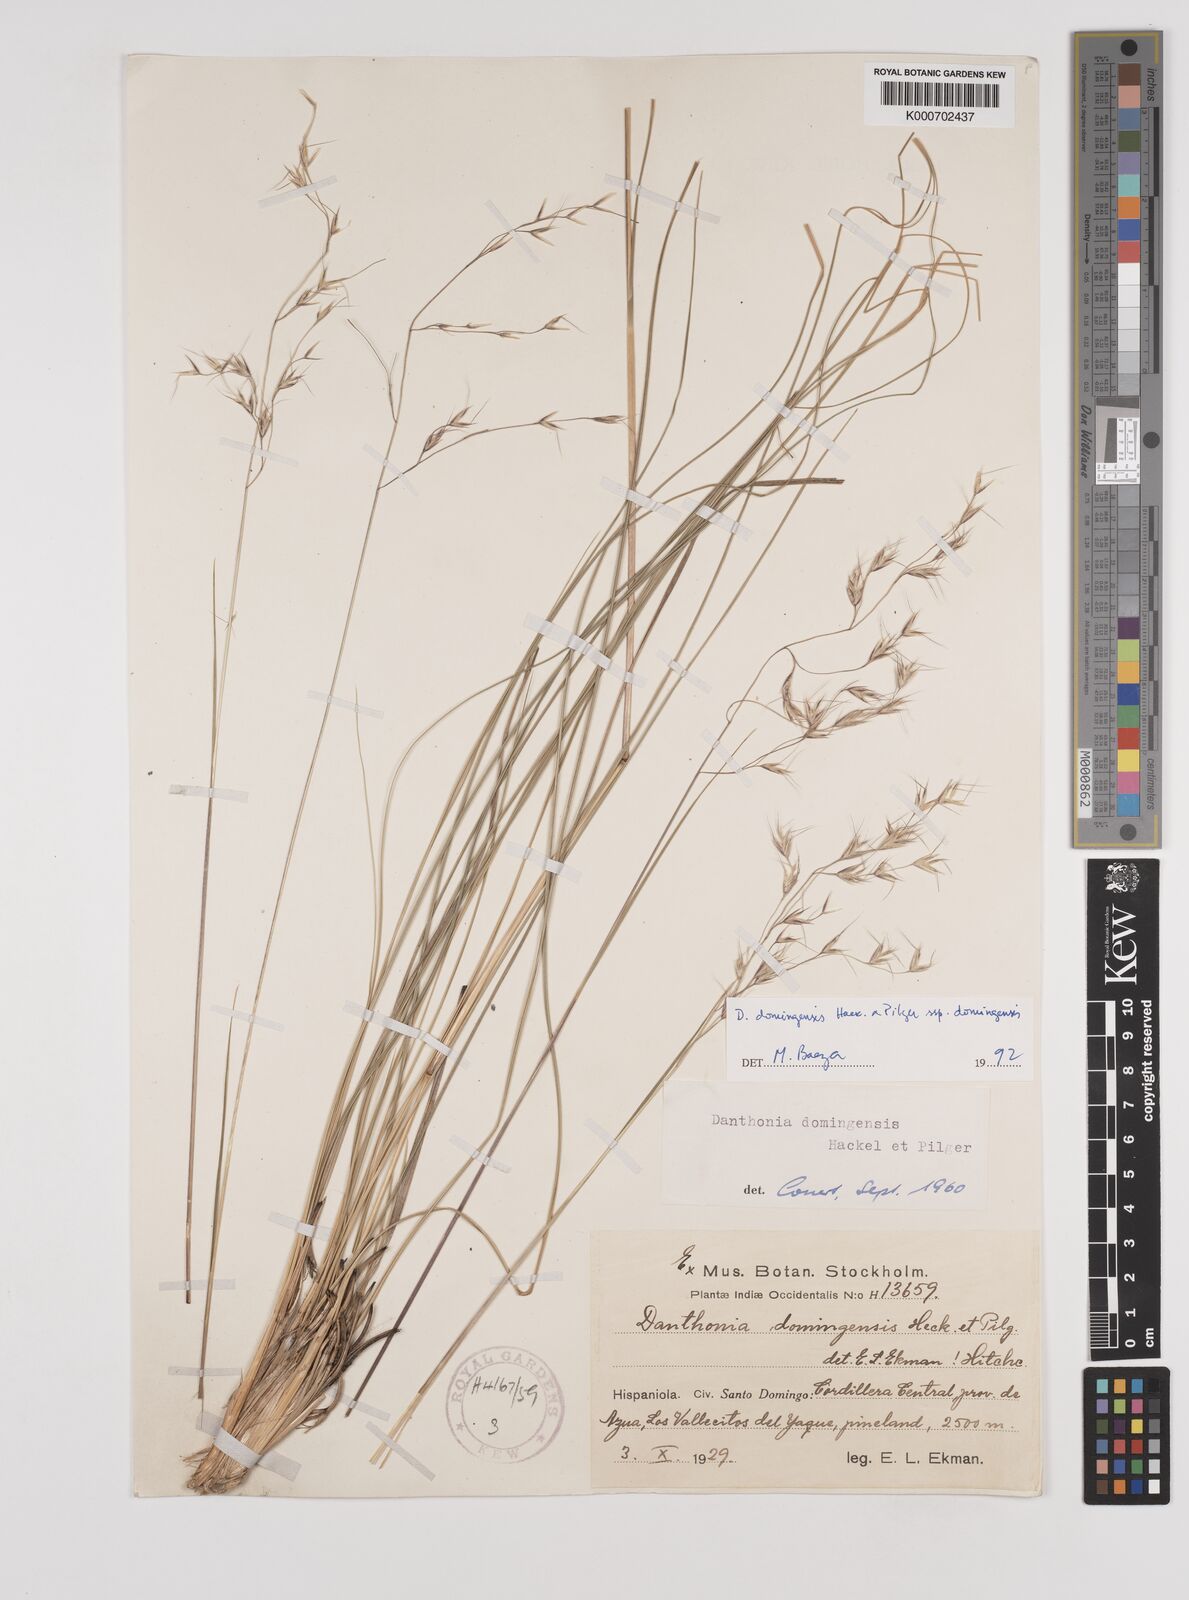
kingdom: Plantae
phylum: Tracheophyta
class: Liliopsida
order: Poales
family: Poaceae
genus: Danthonia
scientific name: Danthonia domingensis
